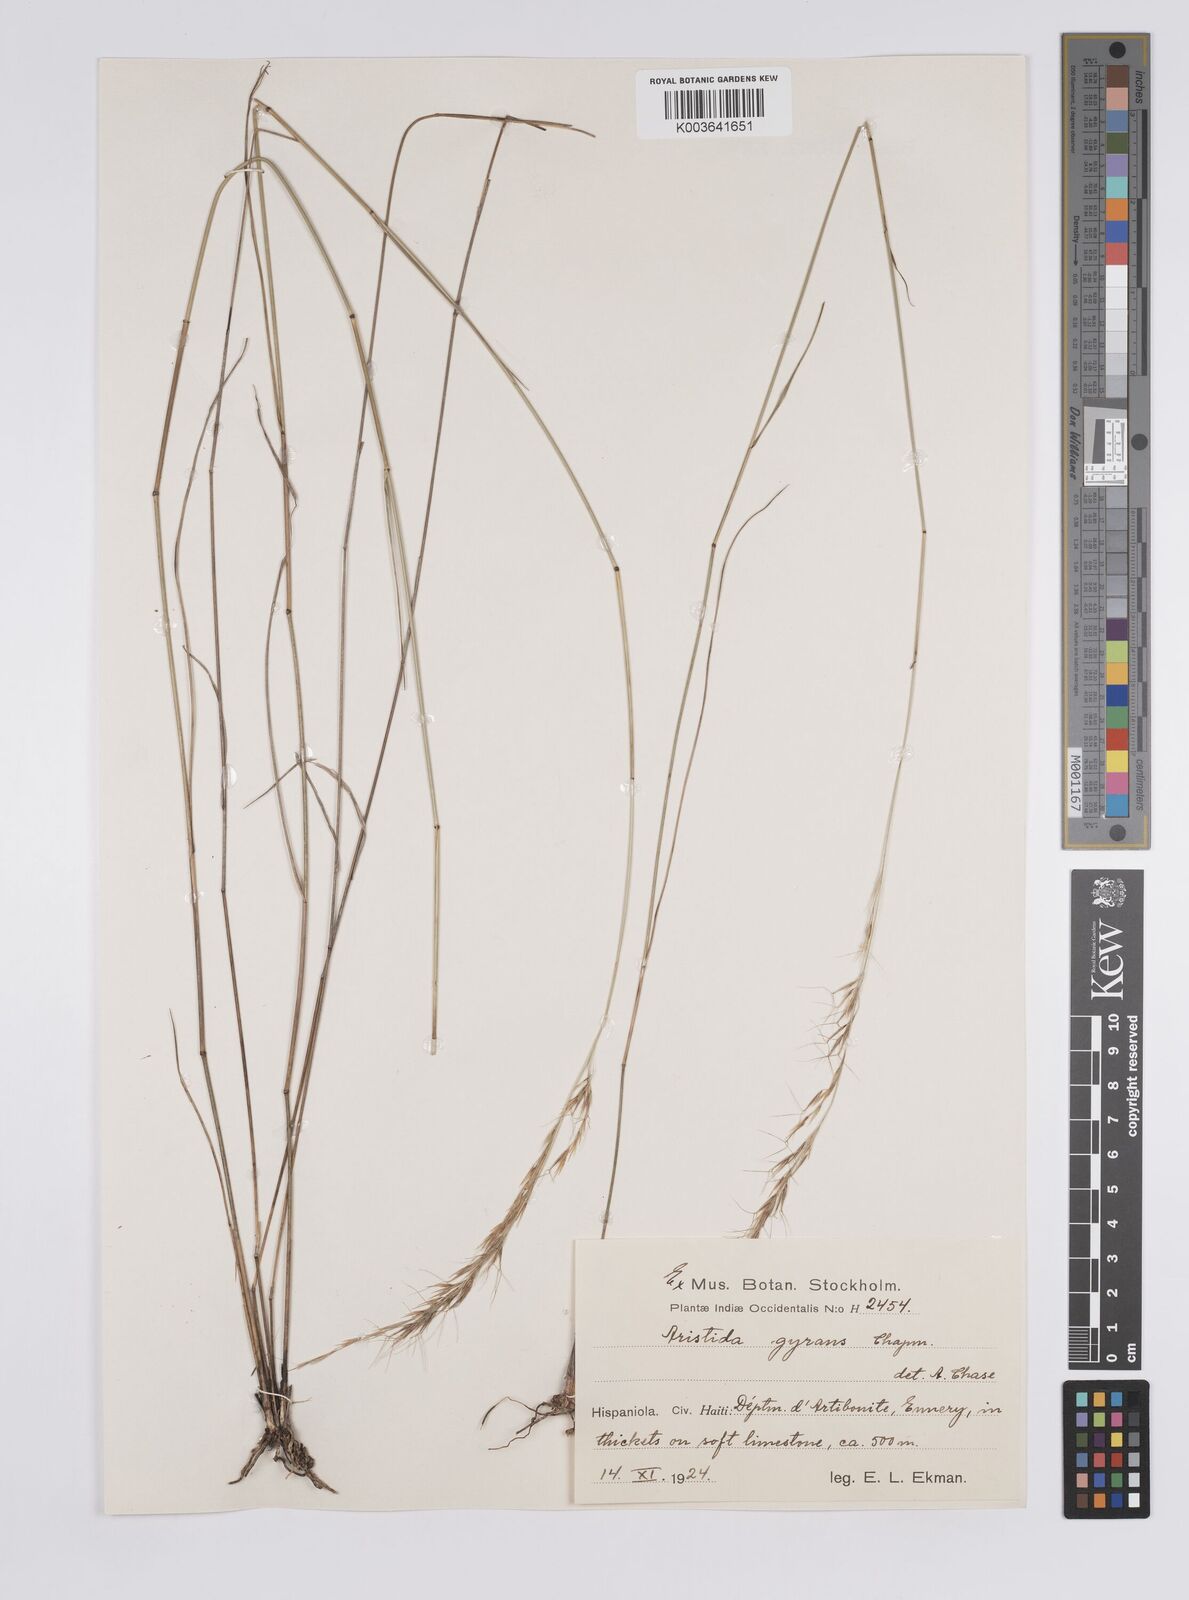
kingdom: Plantae
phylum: Tracheophyta
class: Liliopsida
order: Poales
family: Poaceae
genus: Aristida
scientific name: Aristida vilfifolia
